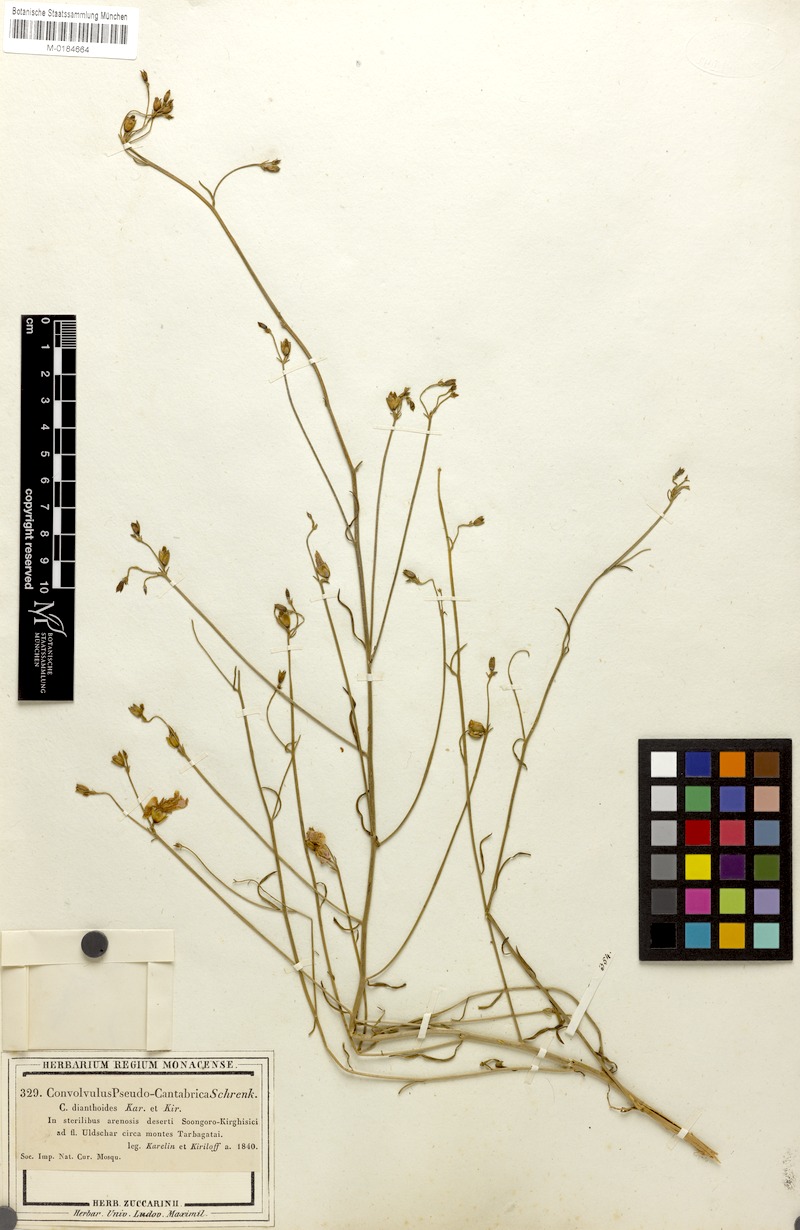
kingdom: Plantae
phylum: Tracheophyta
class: Magnoliopsida
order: Solanales
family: Convolvulaceae
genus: Convolvulus
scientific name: Convolvulus pseudocantabrica
